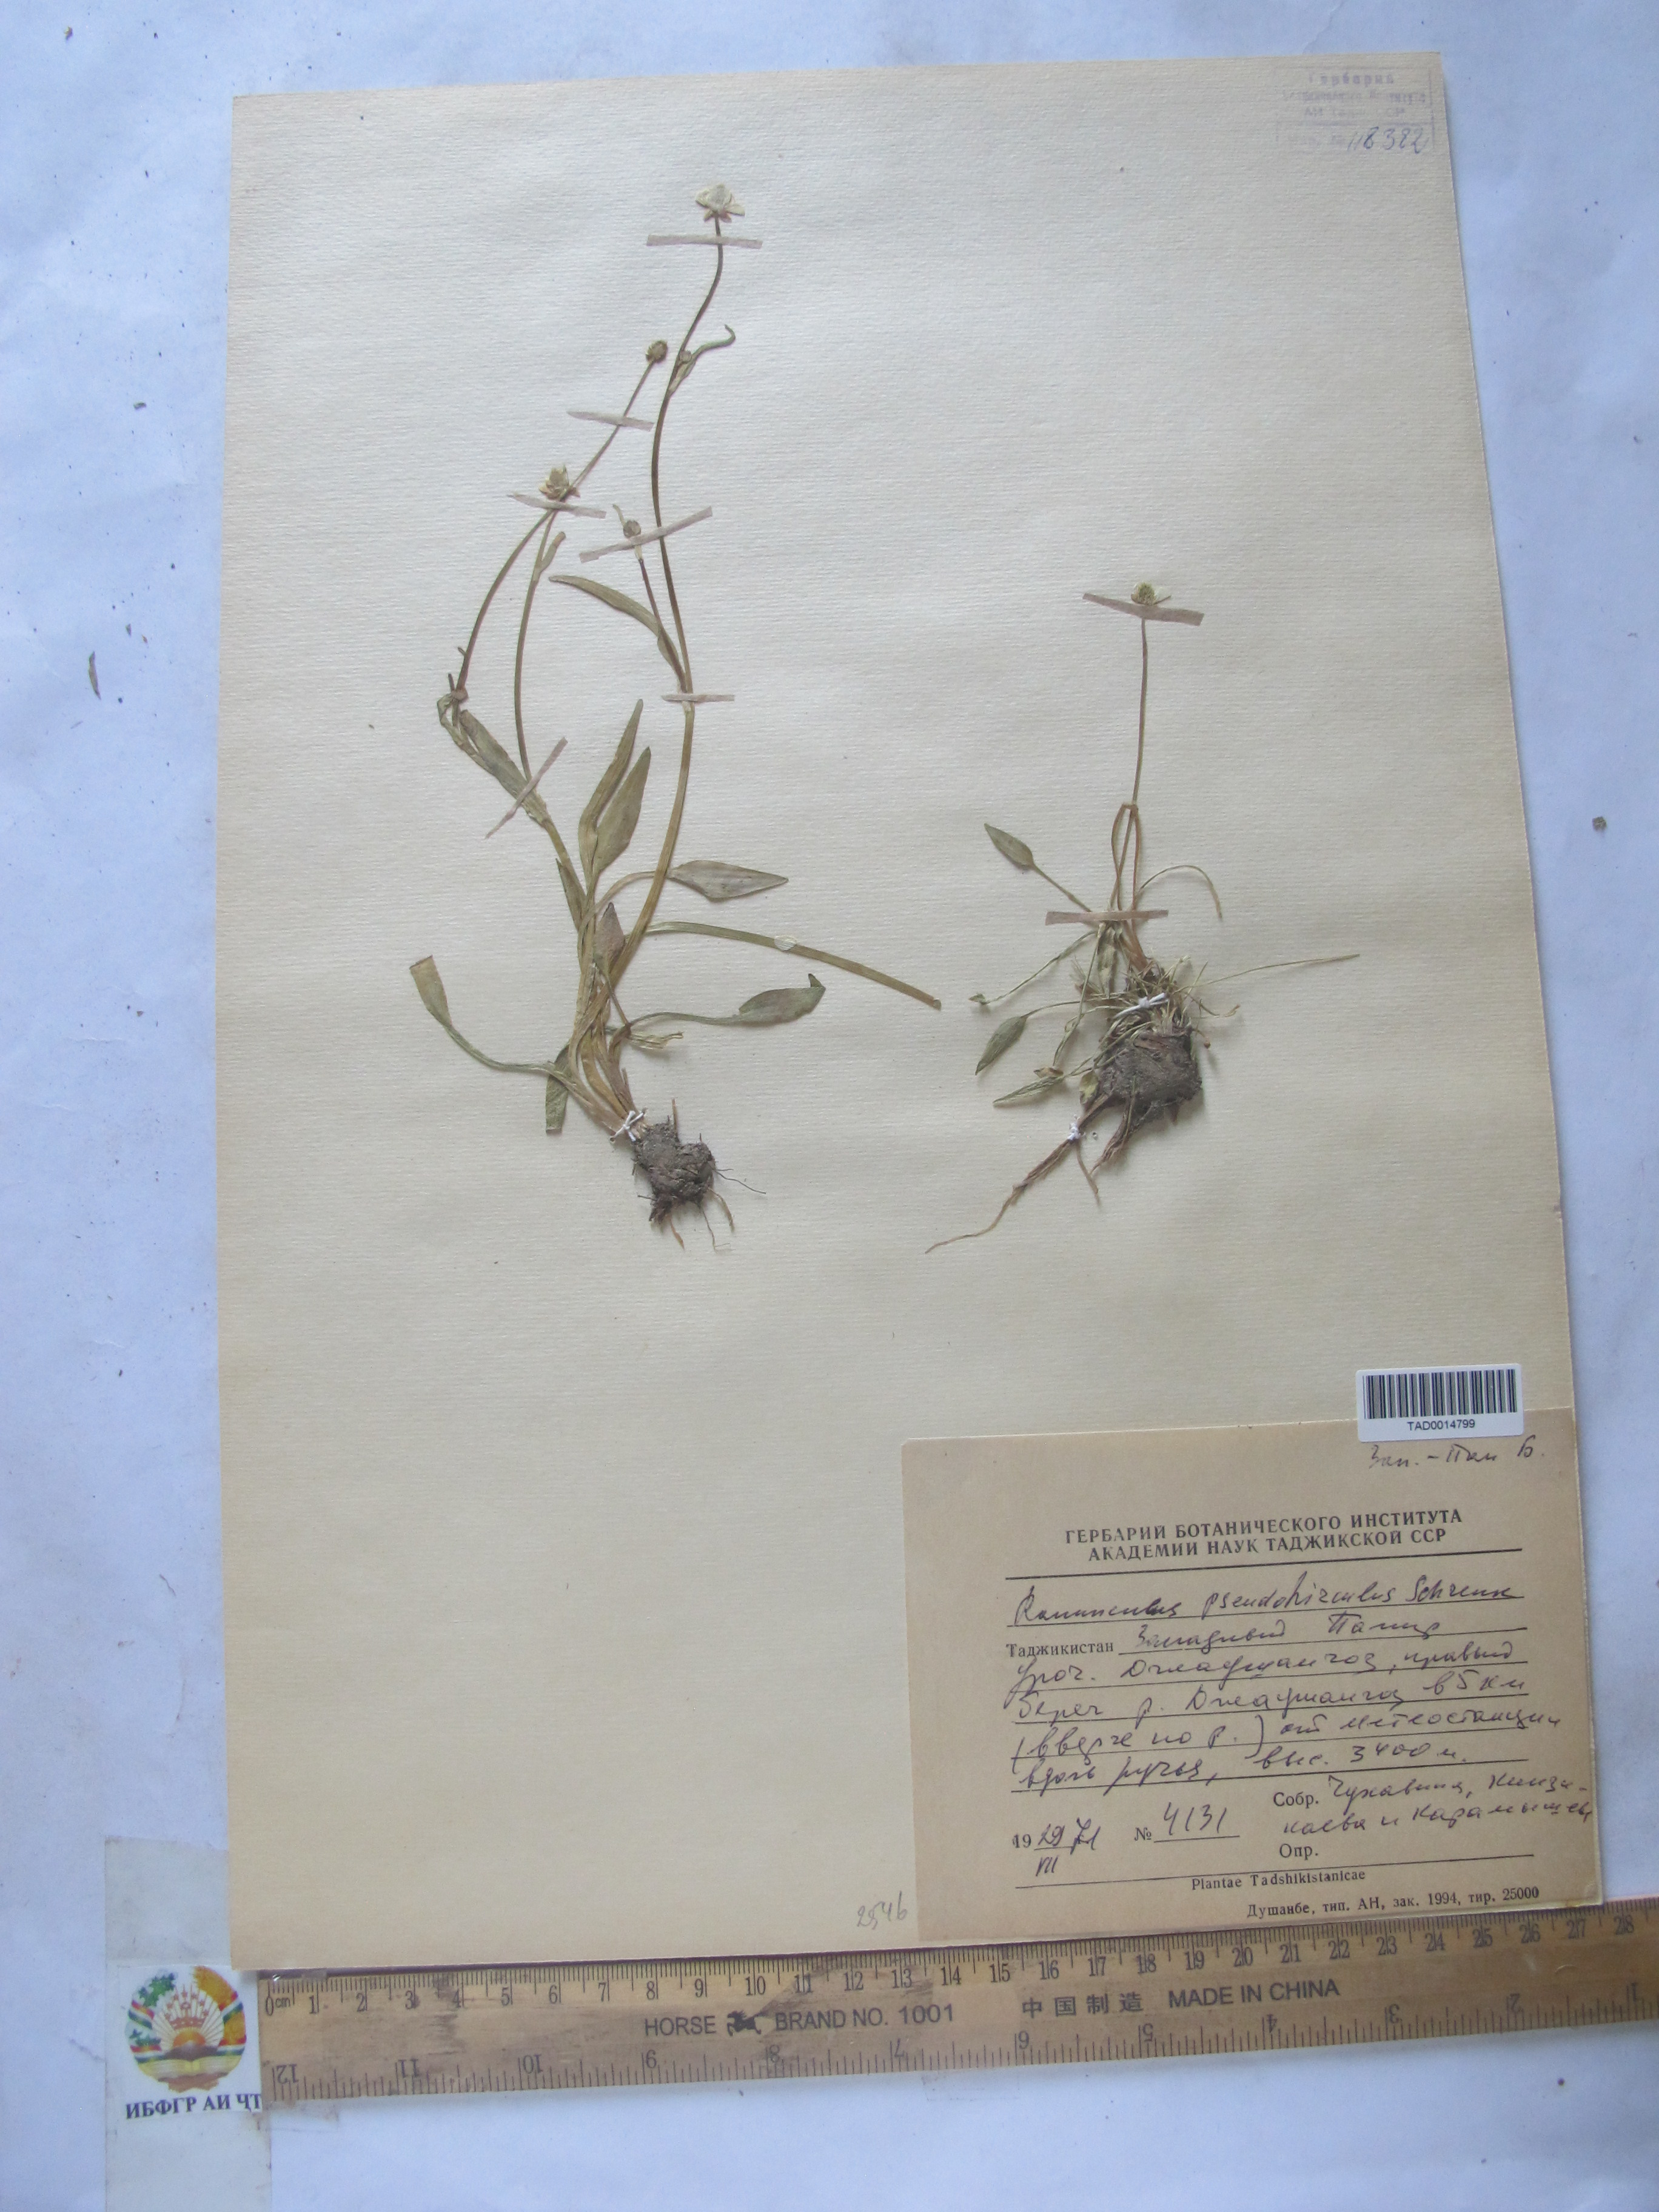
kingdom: Plantae
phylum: Tracheophyta
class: Magnoliopsida
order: Ranunculales
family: Ranunculaceae
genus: Ranunculus
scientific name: Ranunculus pseudohirculus
